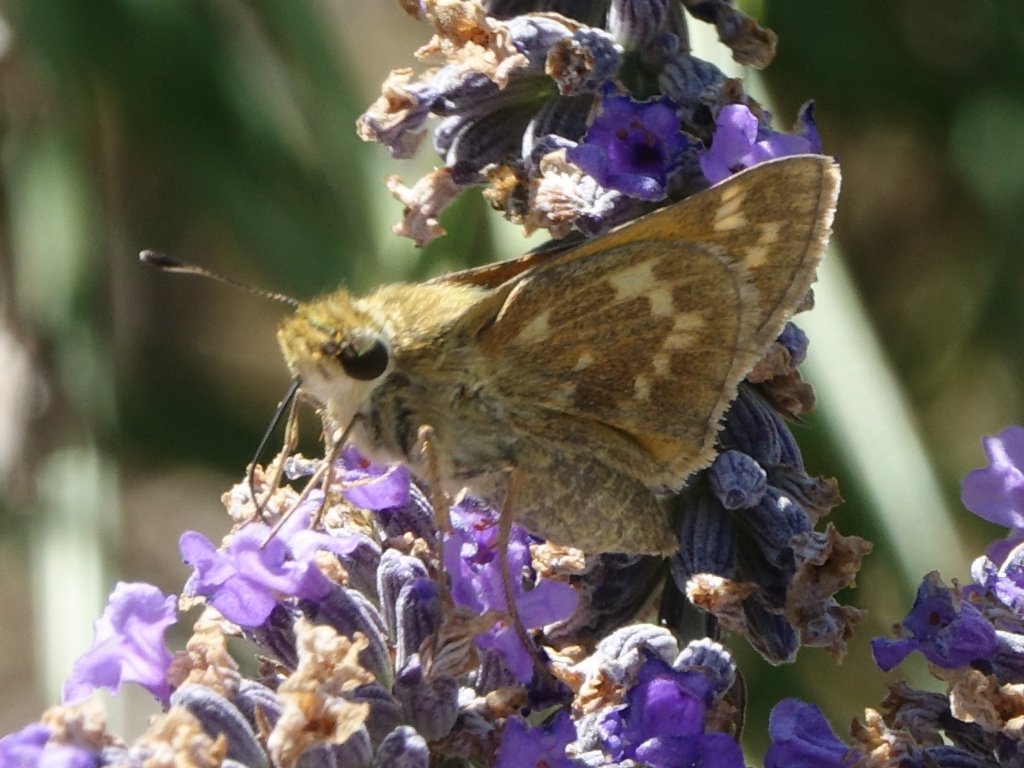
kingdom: Animalia
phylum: Arthropoda
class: Insecta
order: Lepidoptera
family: Hesperiidae
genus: Atalopedes
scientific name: Atalopedes campestris
